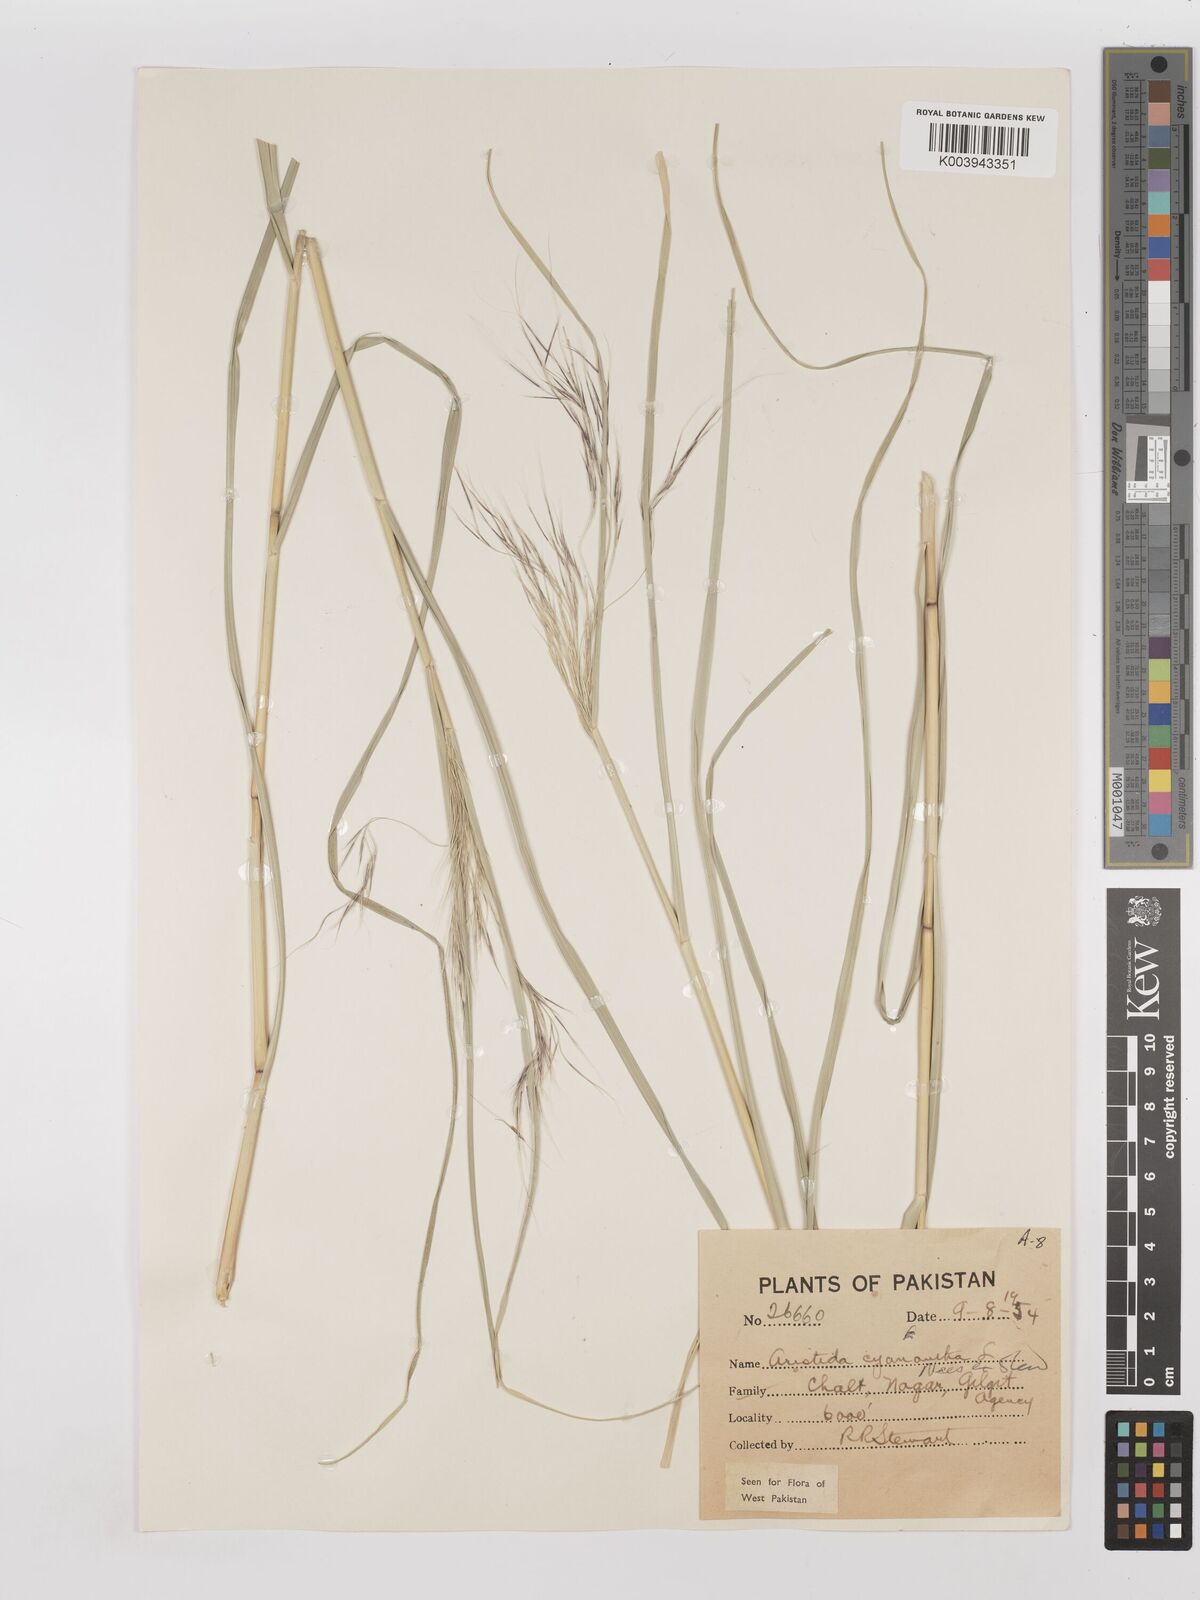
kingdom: Plantae
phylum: Tracheophyta
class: Liliopsida
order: Poales
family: Poaceae
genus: Aristida
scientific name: Aristida cyanantha
